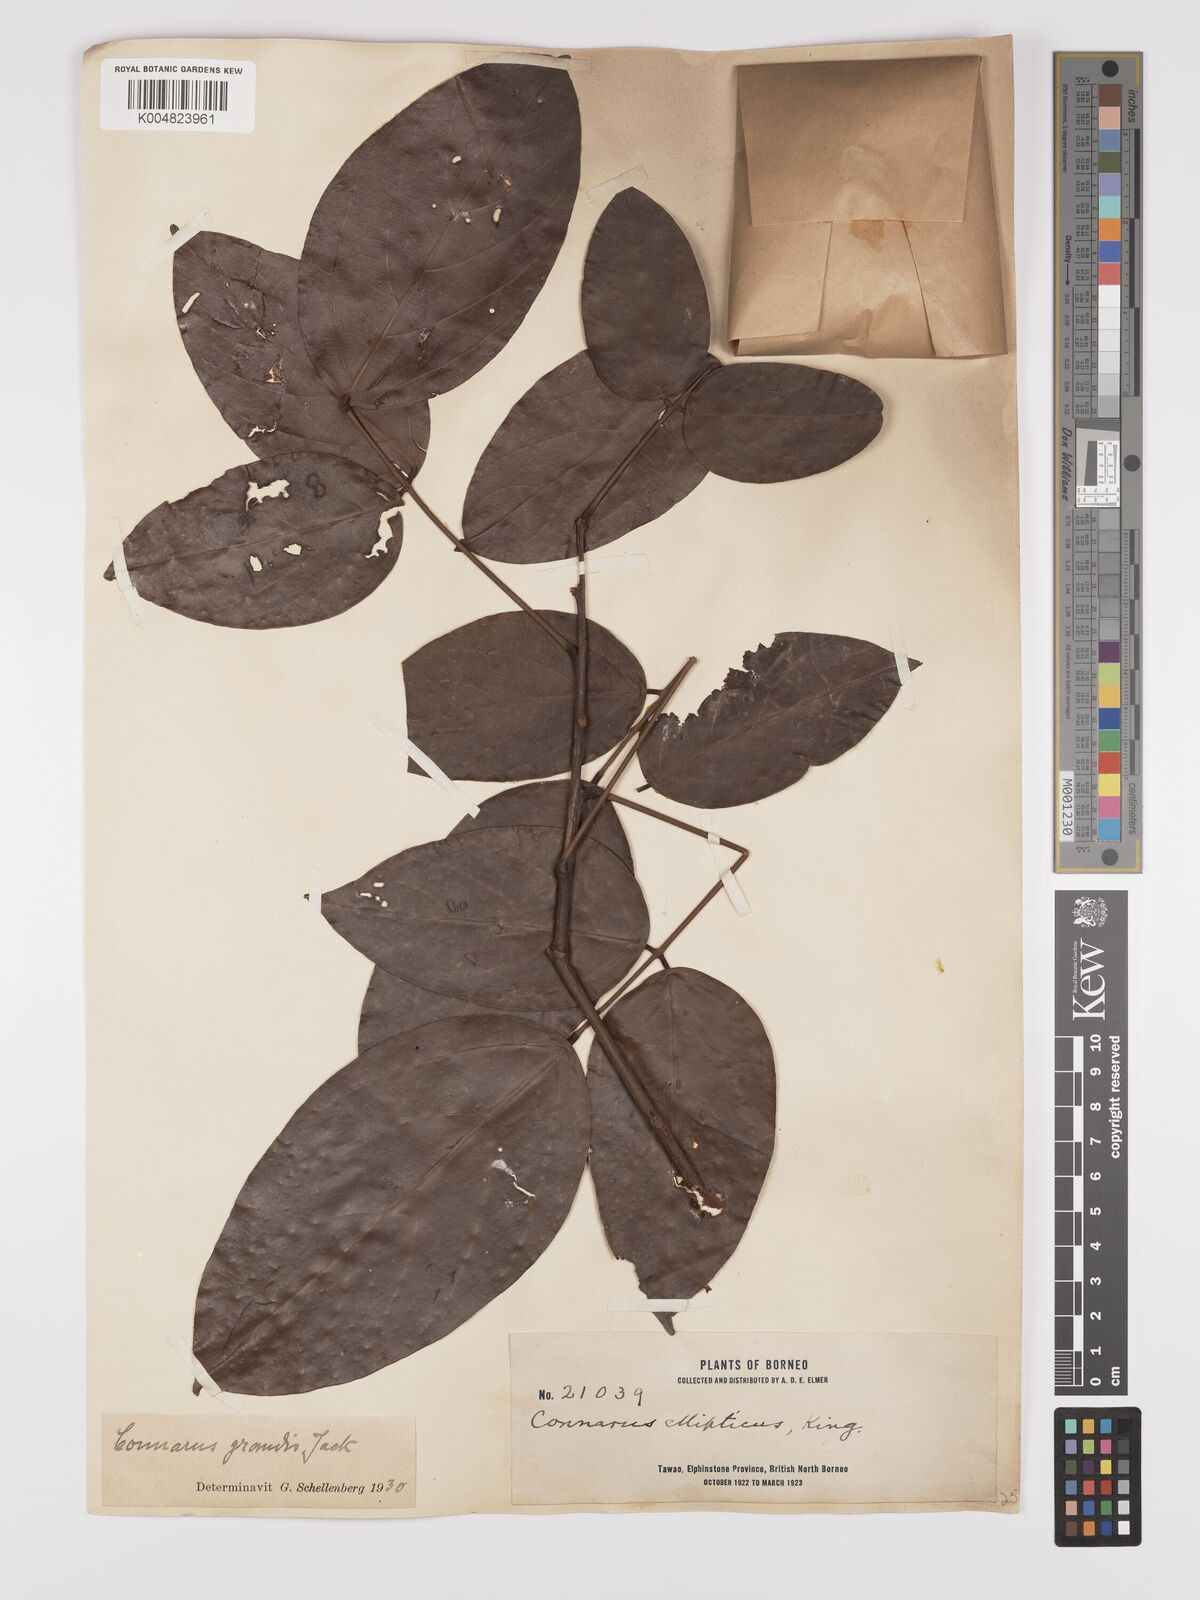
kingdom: Plantae
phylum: Tracheophyta
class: Magnoliopsida
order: Oxalidales
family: Connaraceae
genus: Connarus
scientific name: Connarus semidecandrus
